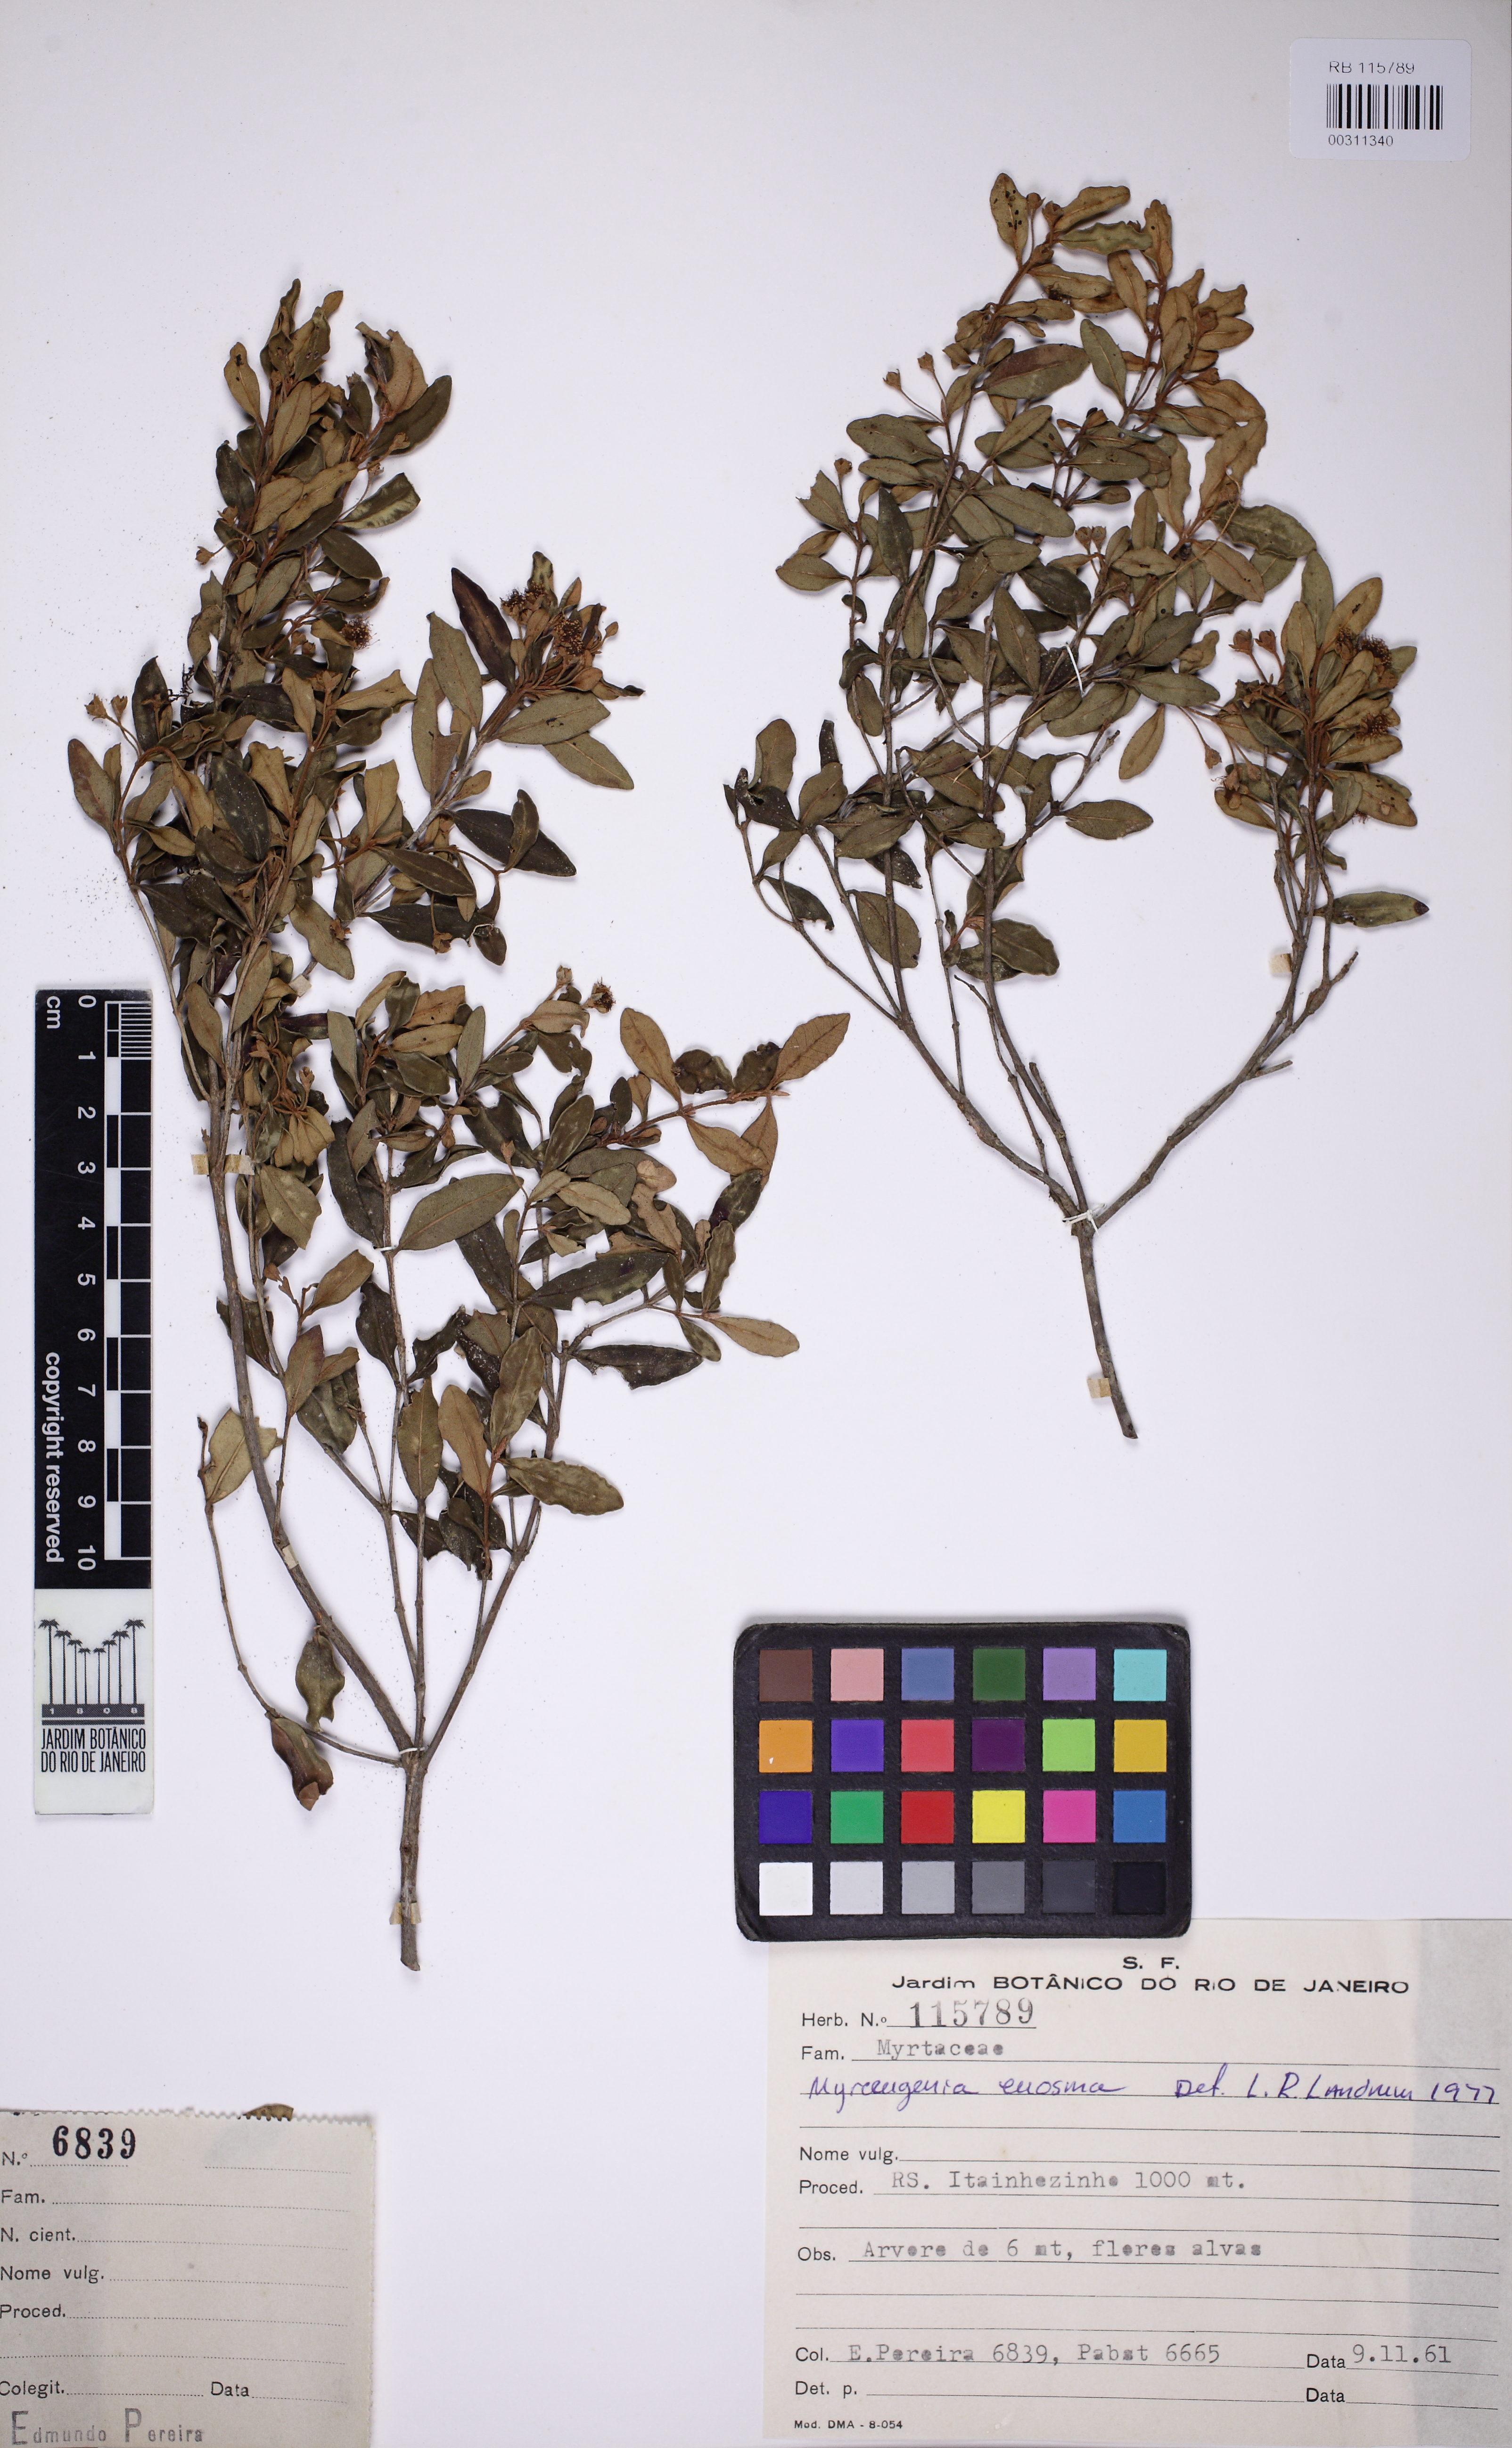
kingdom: Plantae
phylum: Tracheophyta
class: Magnoliopsida
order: Myrtales
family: Myrtaceae
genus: Myrceugenia
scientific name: Myrceugenia euosma
